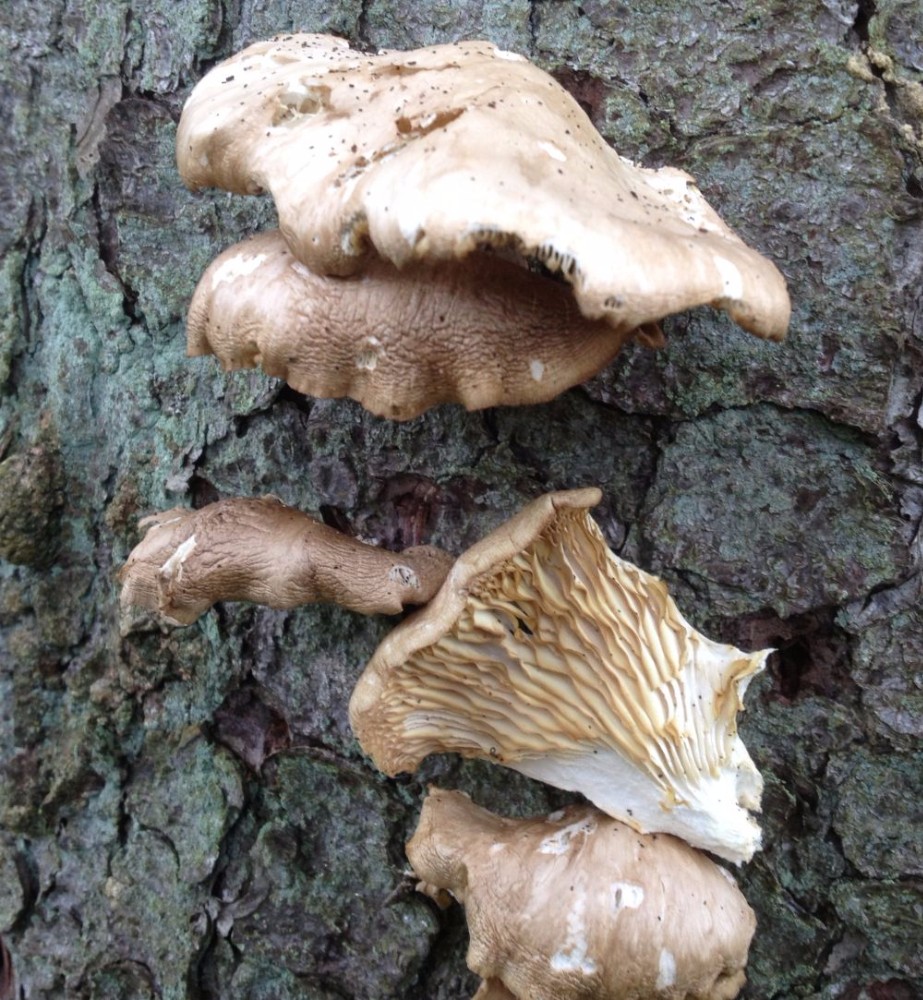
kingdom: Fungi
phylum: Basidiomycota
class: Agaricomycetes
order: Agaricales
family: Pleurotaceae
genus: Pleurotus
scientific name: Pleurotus ostreatus
